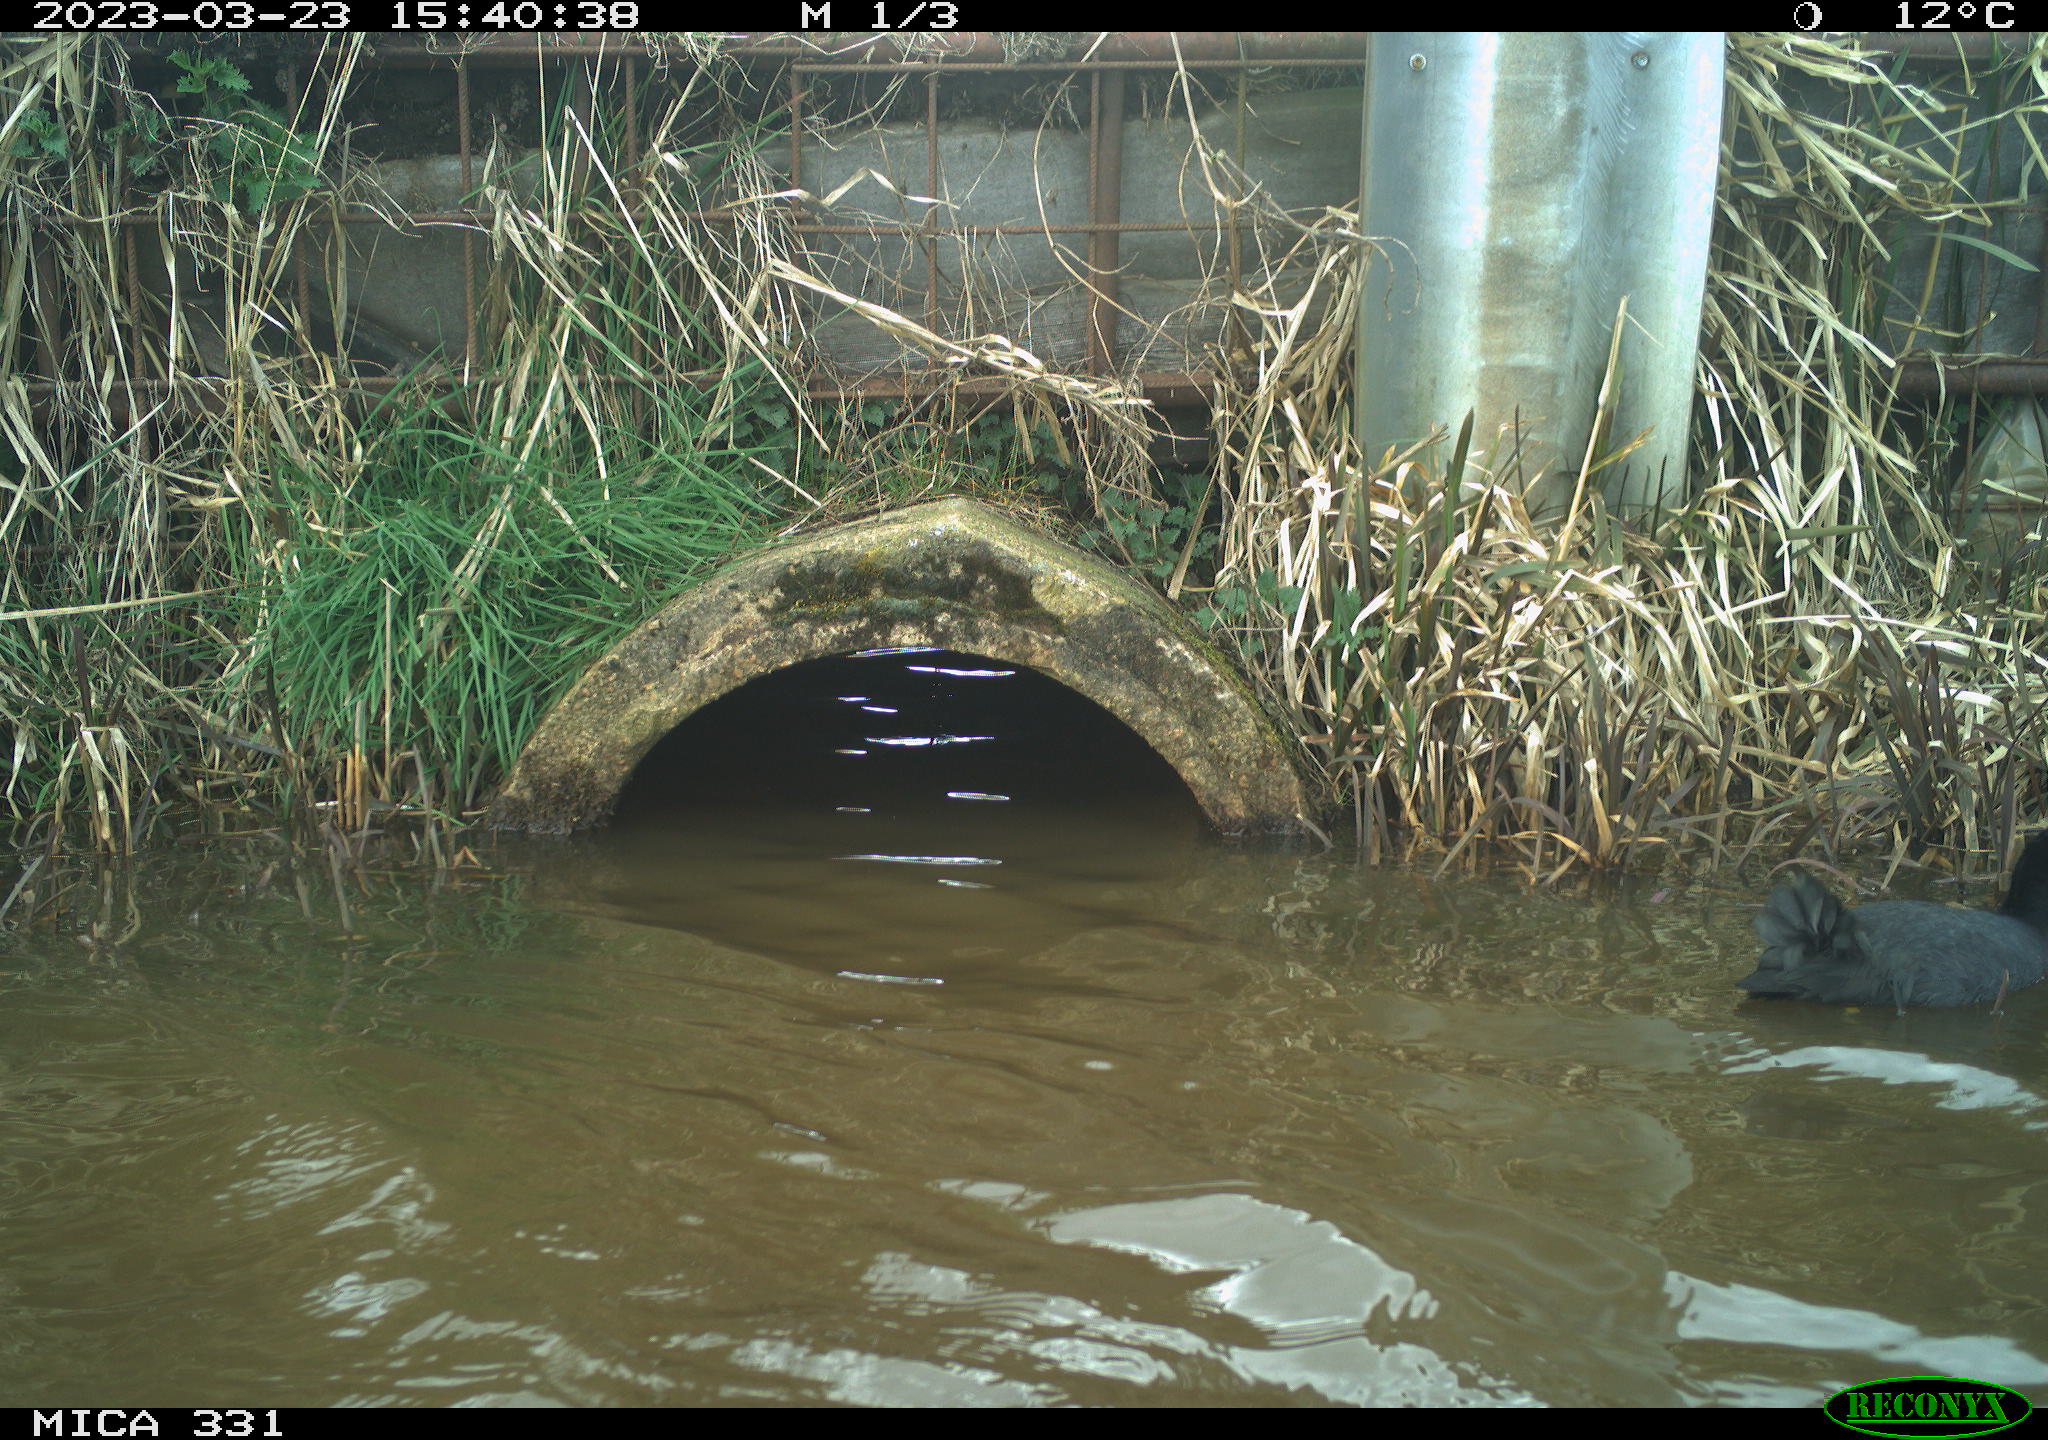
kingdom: Animalia
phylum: Chordata
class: Aves
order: Gruiformes
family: Rallidae
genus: Gallinula
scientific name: Gallinula chloropus
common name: Common moorhen
